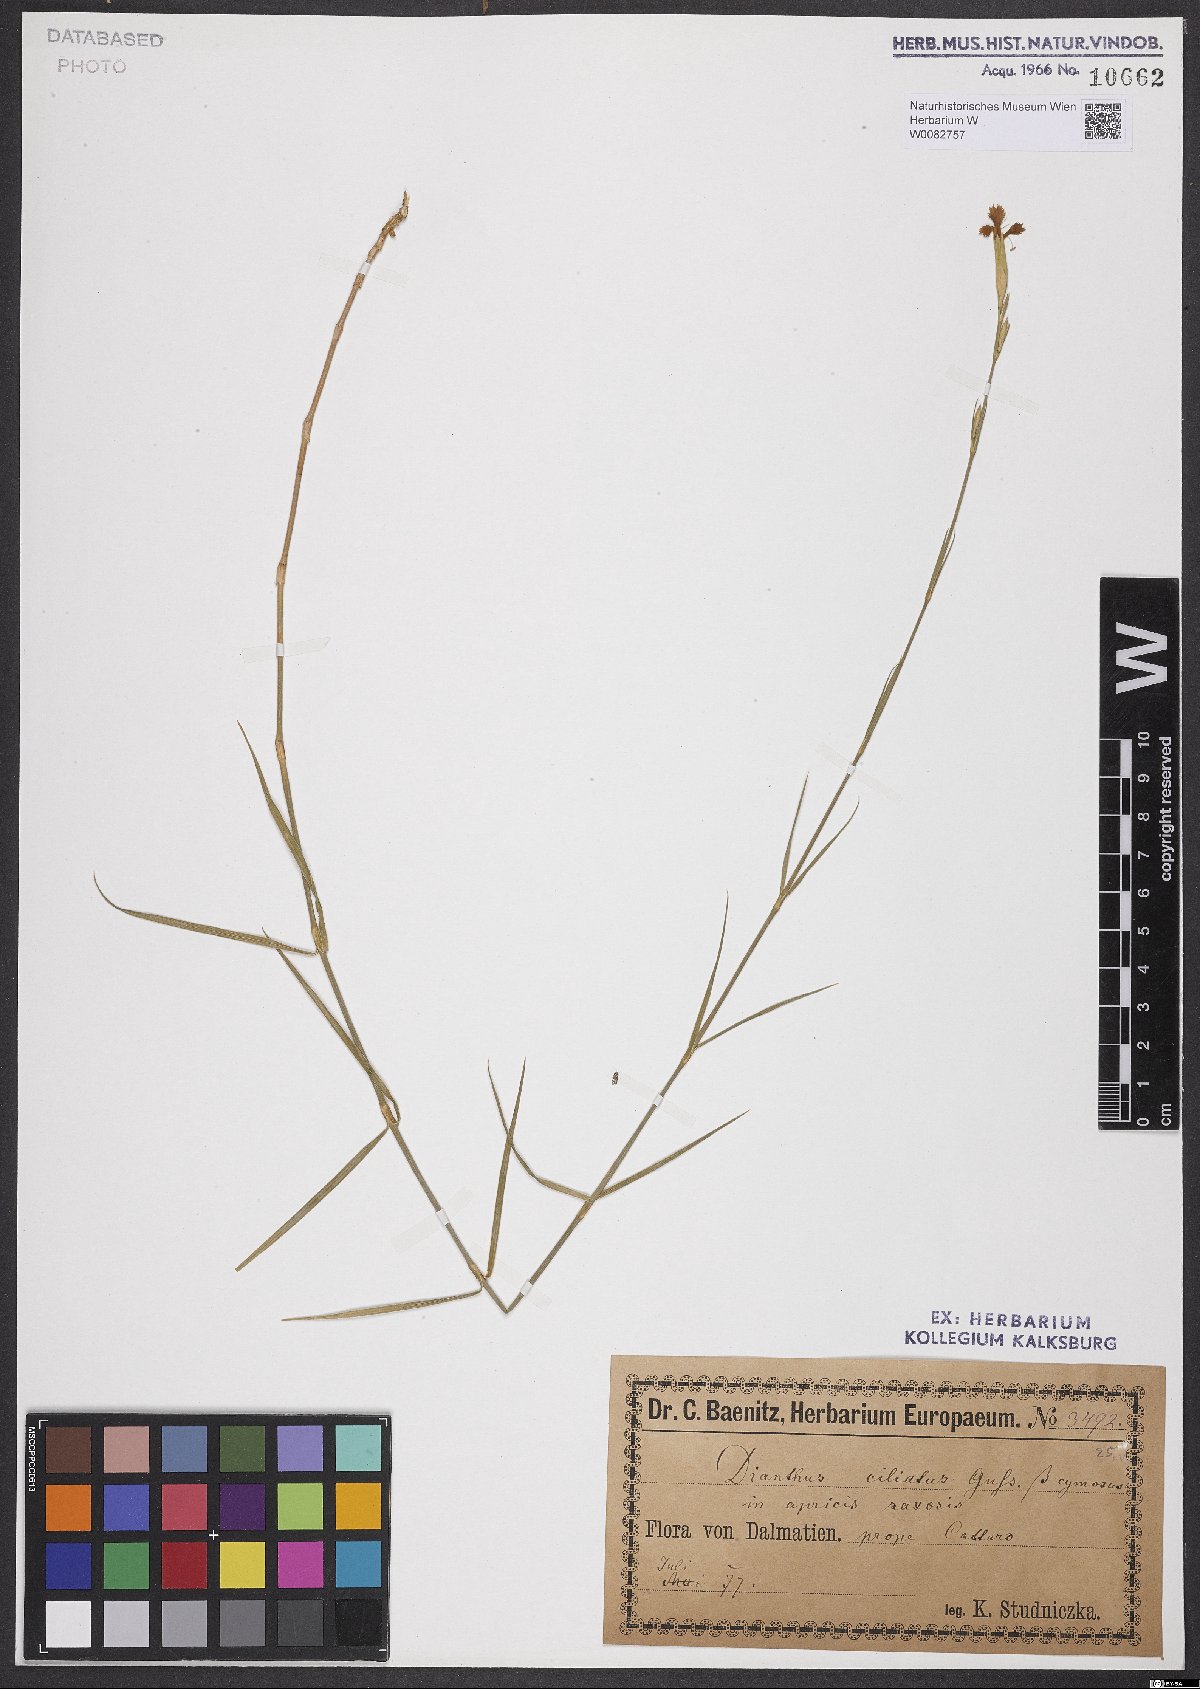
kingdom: Plantae
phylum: Tracheophyta
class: Magnoliopsida
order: Caryophyllales
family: Caryophyllaceae
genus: Dianthus
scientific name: Dianthus ciliatus
